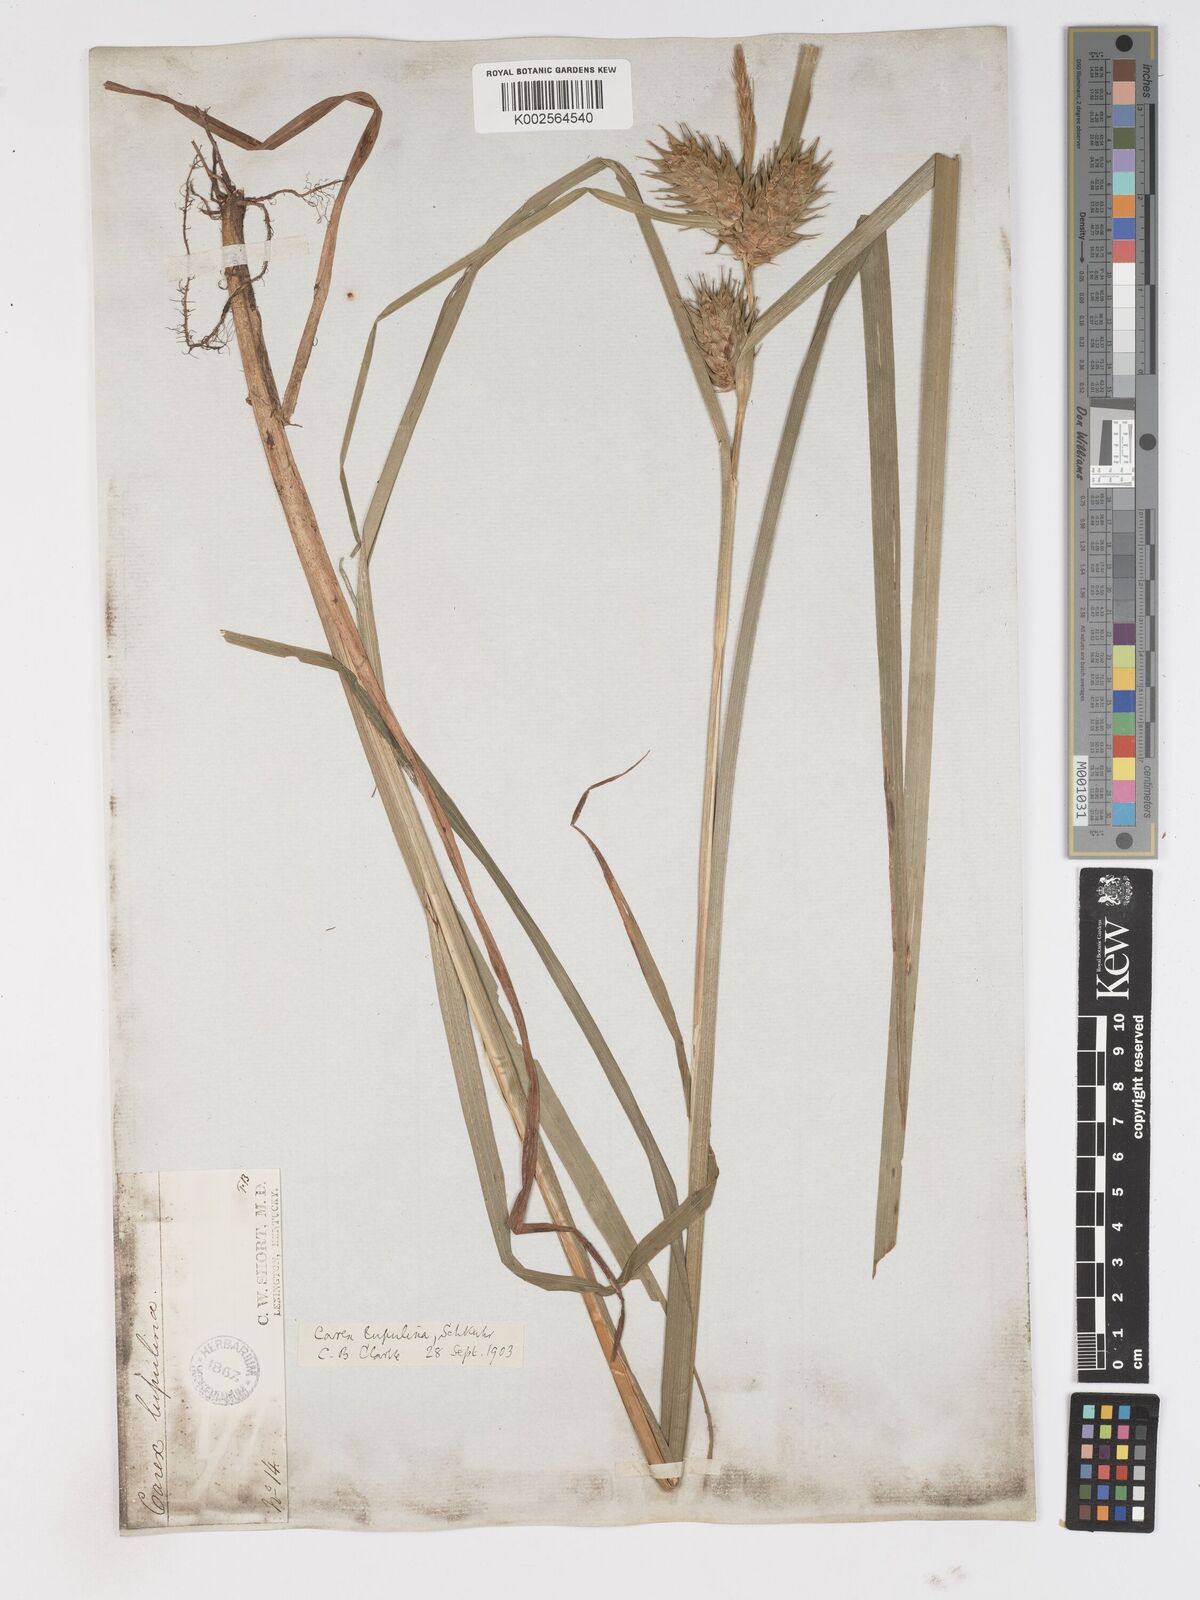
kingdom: Plantae
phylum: Tracheophyta
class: Liliopsida
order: Poales
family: Cyperaceae
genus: Carex
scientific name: Carex lupulina
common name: Hop sedge
